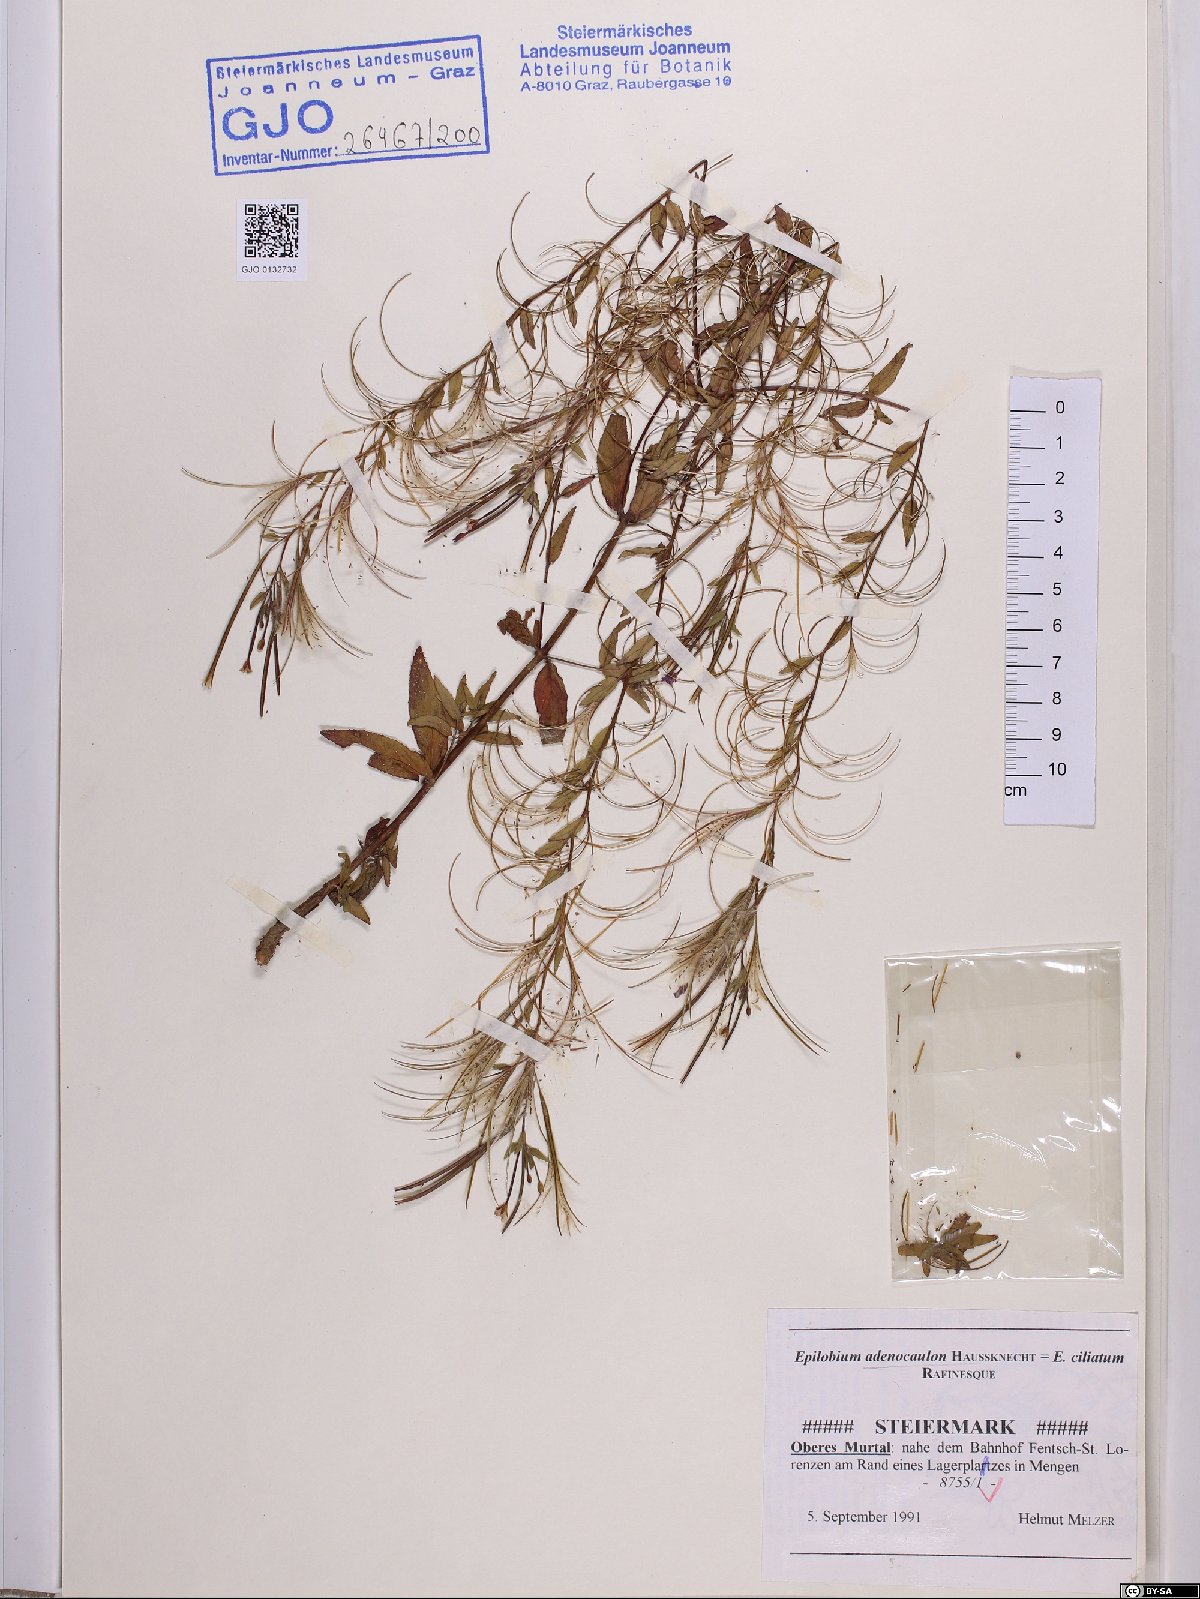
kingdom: Plantae
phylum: Tracheophyta
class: Magnoliopsida
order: Myrtales
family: Onagraceae
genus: Epilobium
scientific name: Epilobium ciliatum
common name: American willowherb
